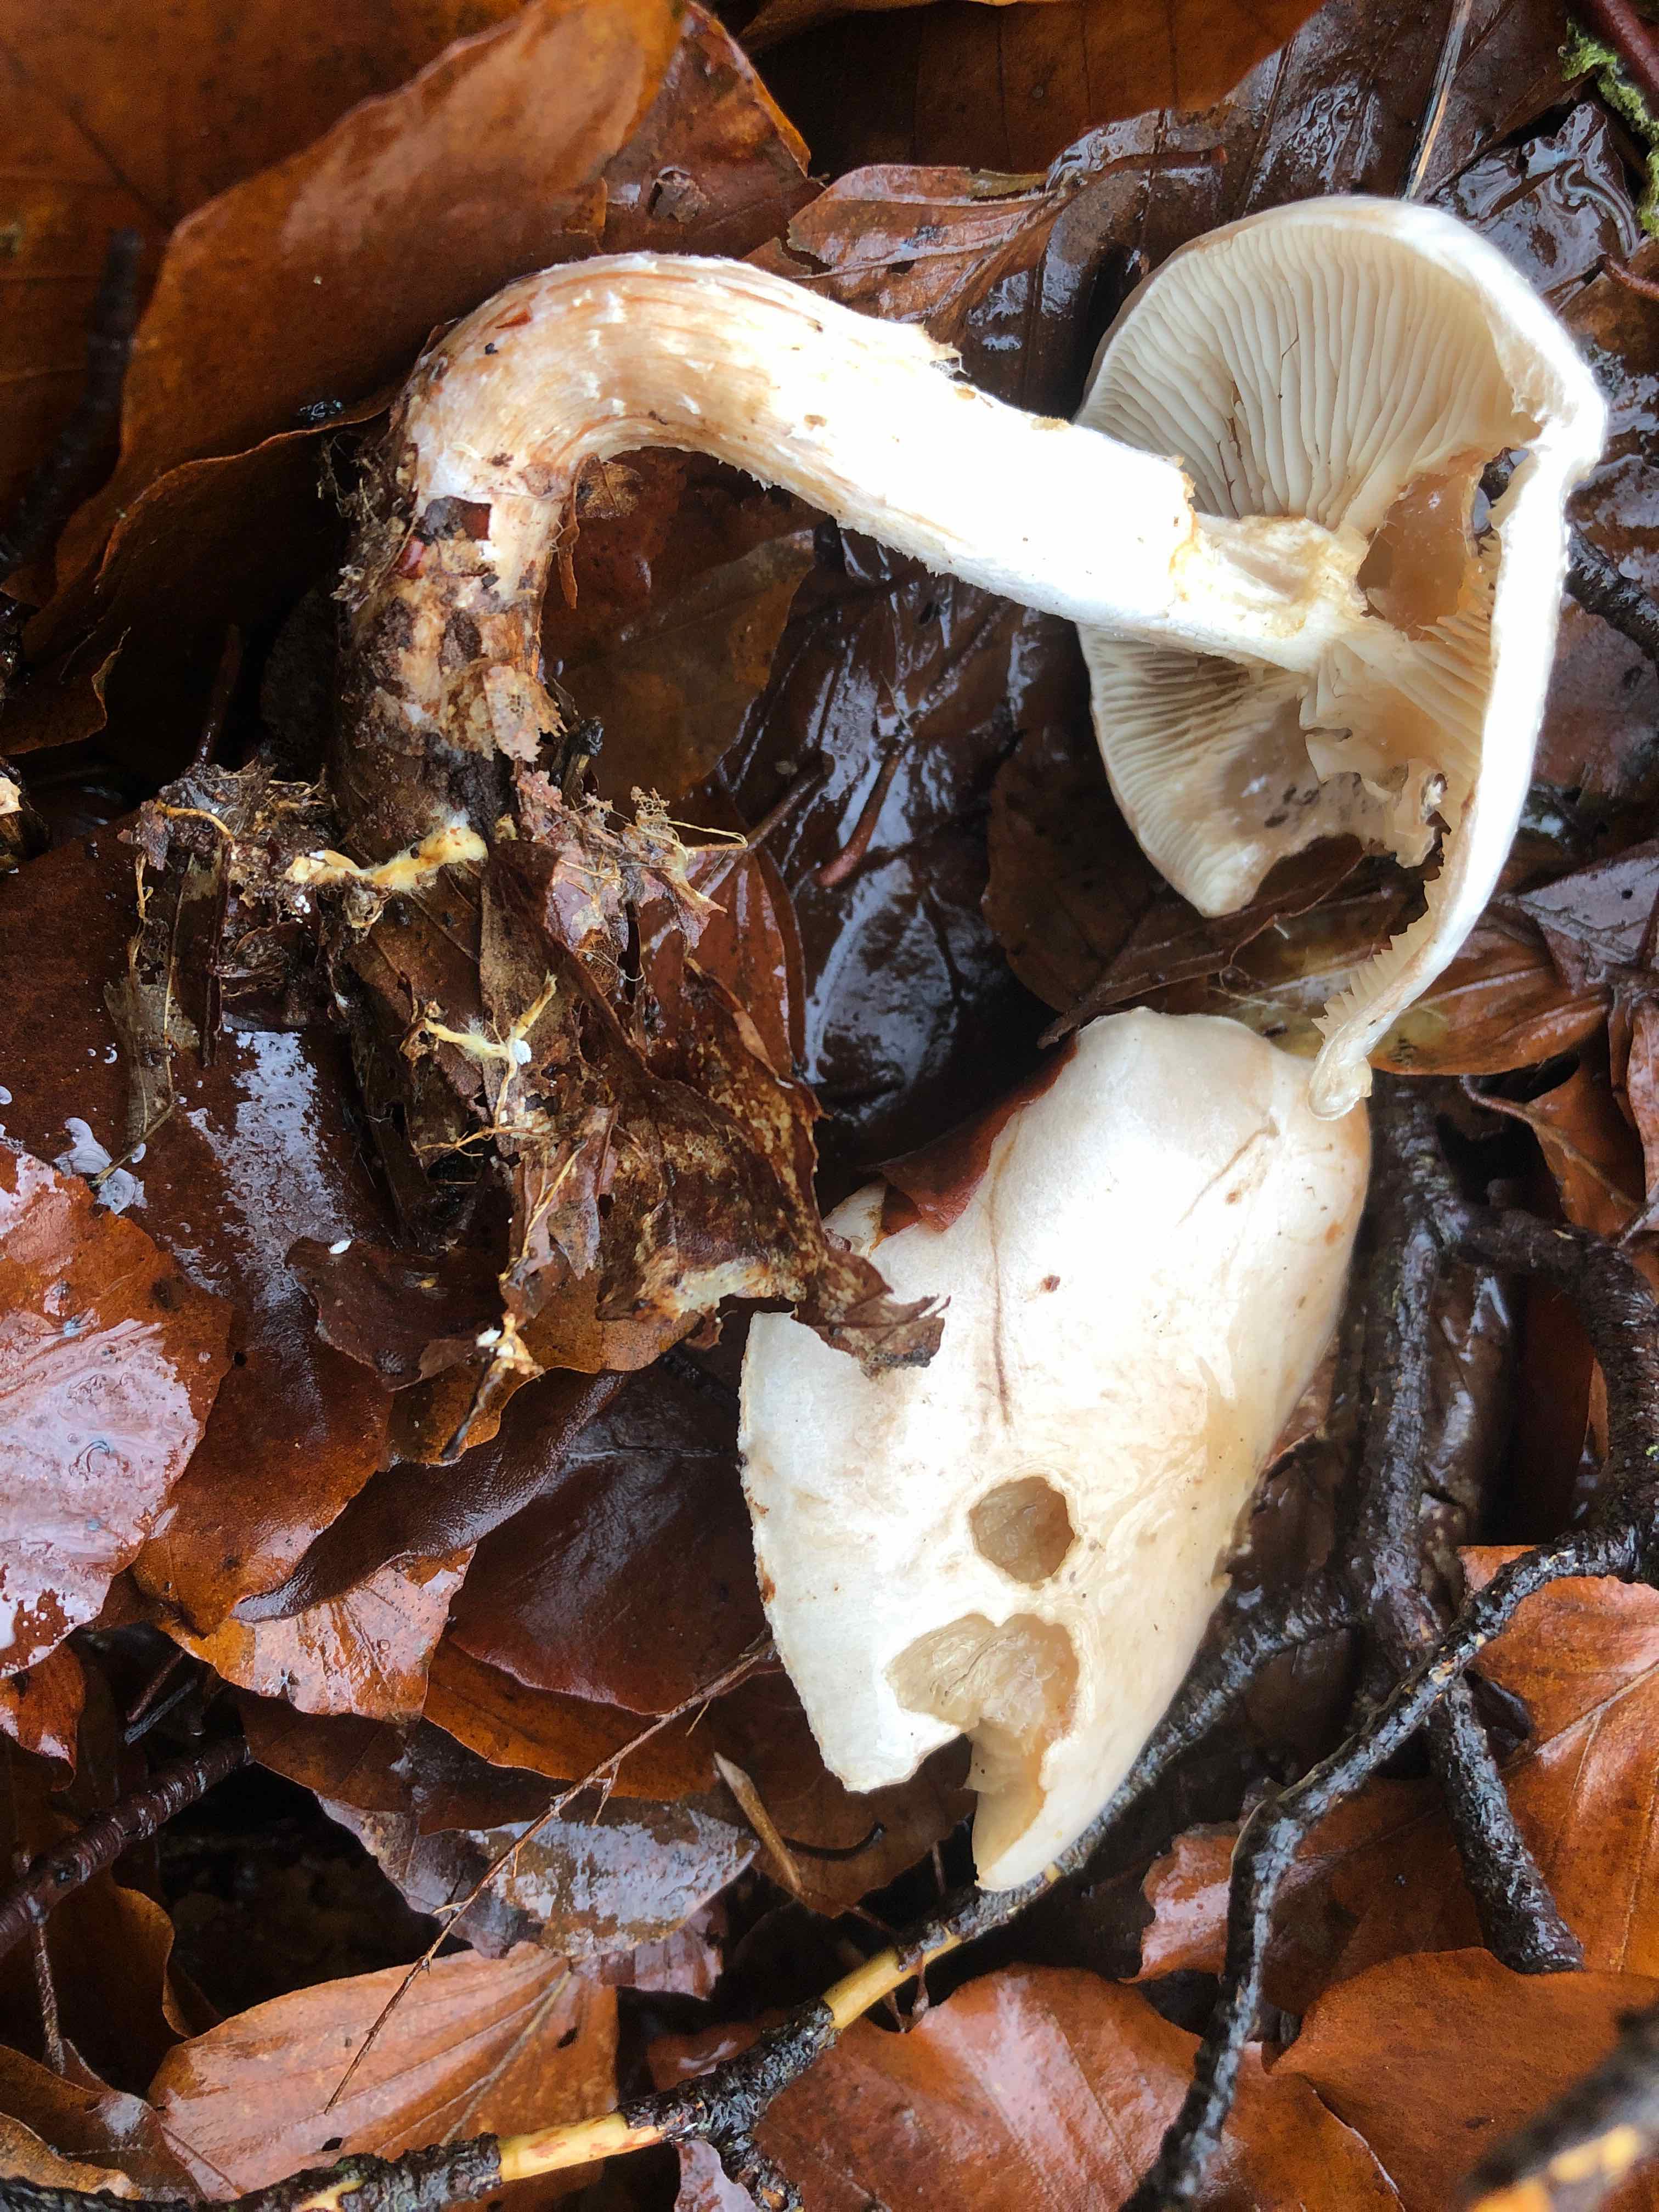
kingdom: Fungi
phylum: Basidiomycota
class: Agaricomycetes
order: Agaricales
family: Strophariaceae
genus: Pholiota
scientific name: Pholiota lenta
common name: løv-skælhat
